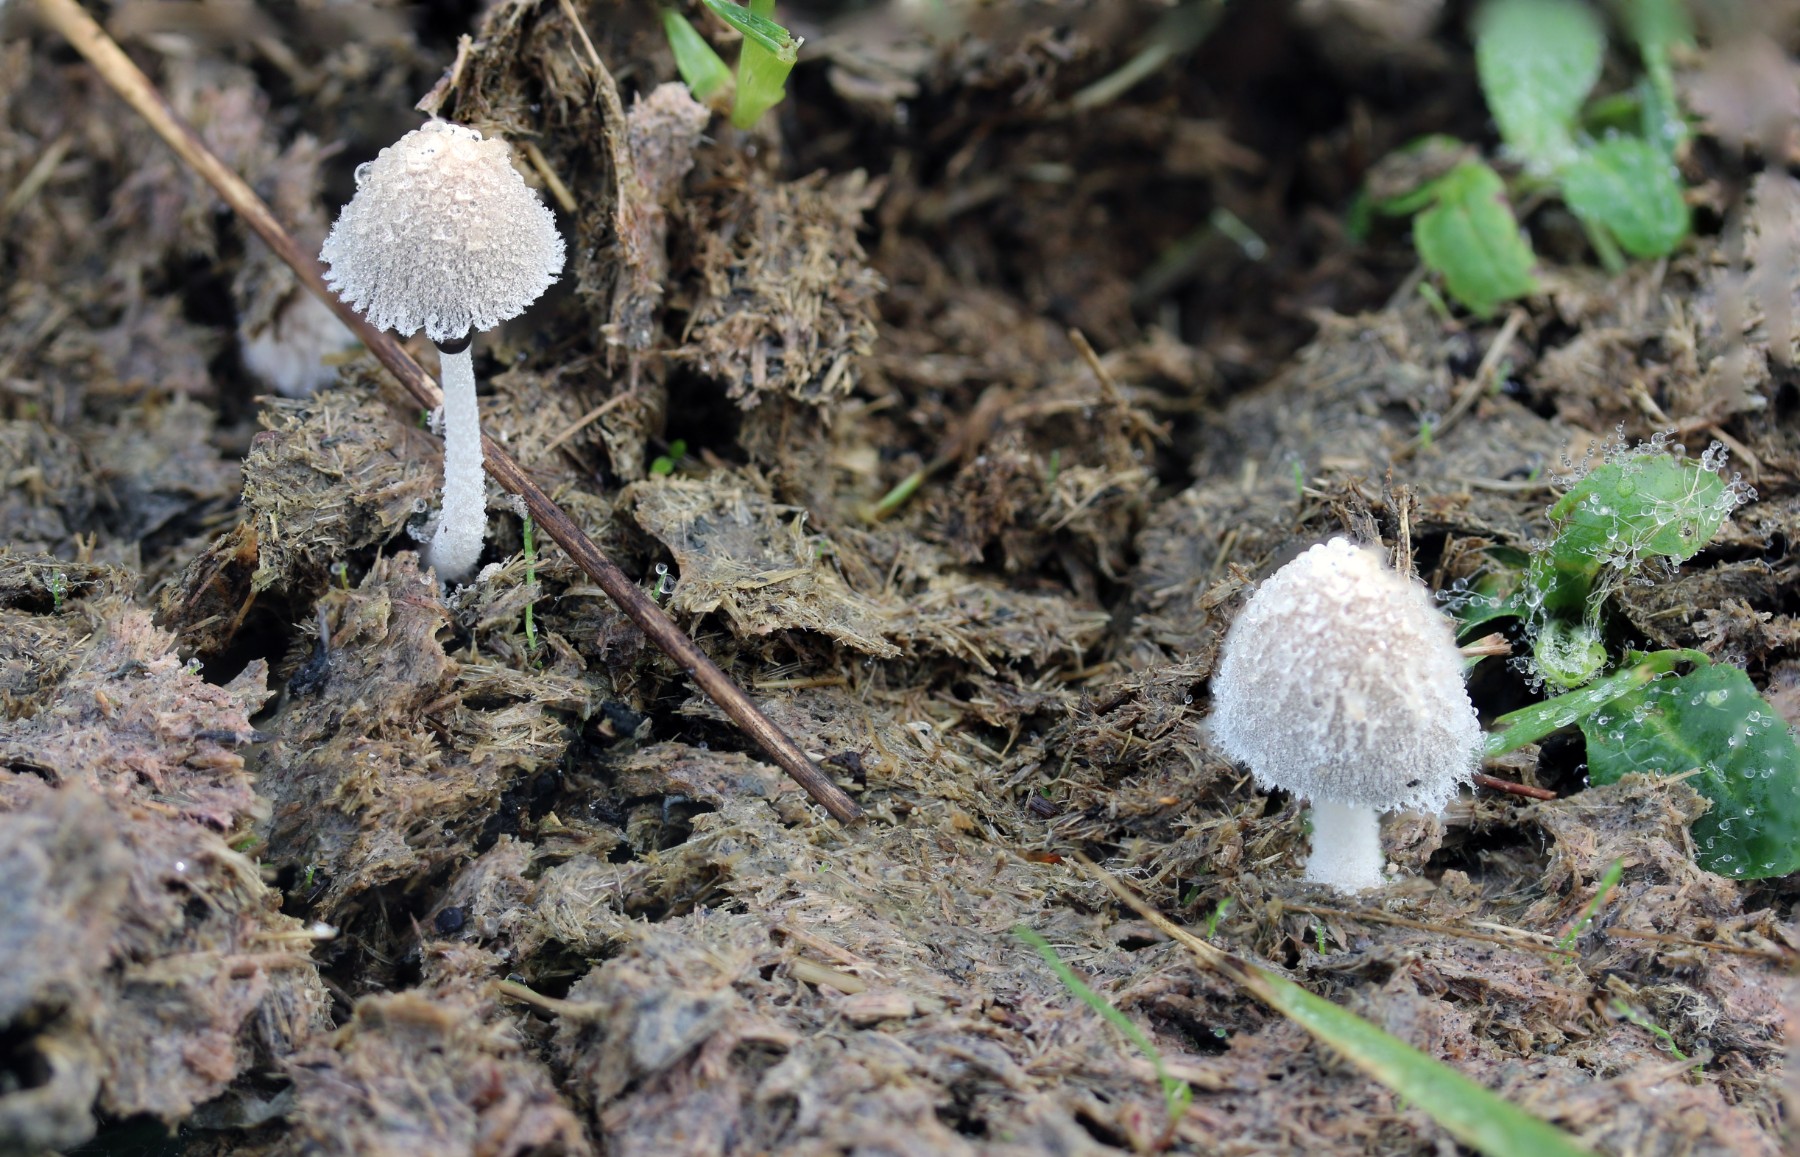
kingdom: Fungi
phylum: Basidiomycota
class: Agaricomycetes
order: Agaricales
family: Psathyrellaceae
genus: Coprinopsis
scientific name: Coprinopsis nivea
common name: snehvid blækhat
